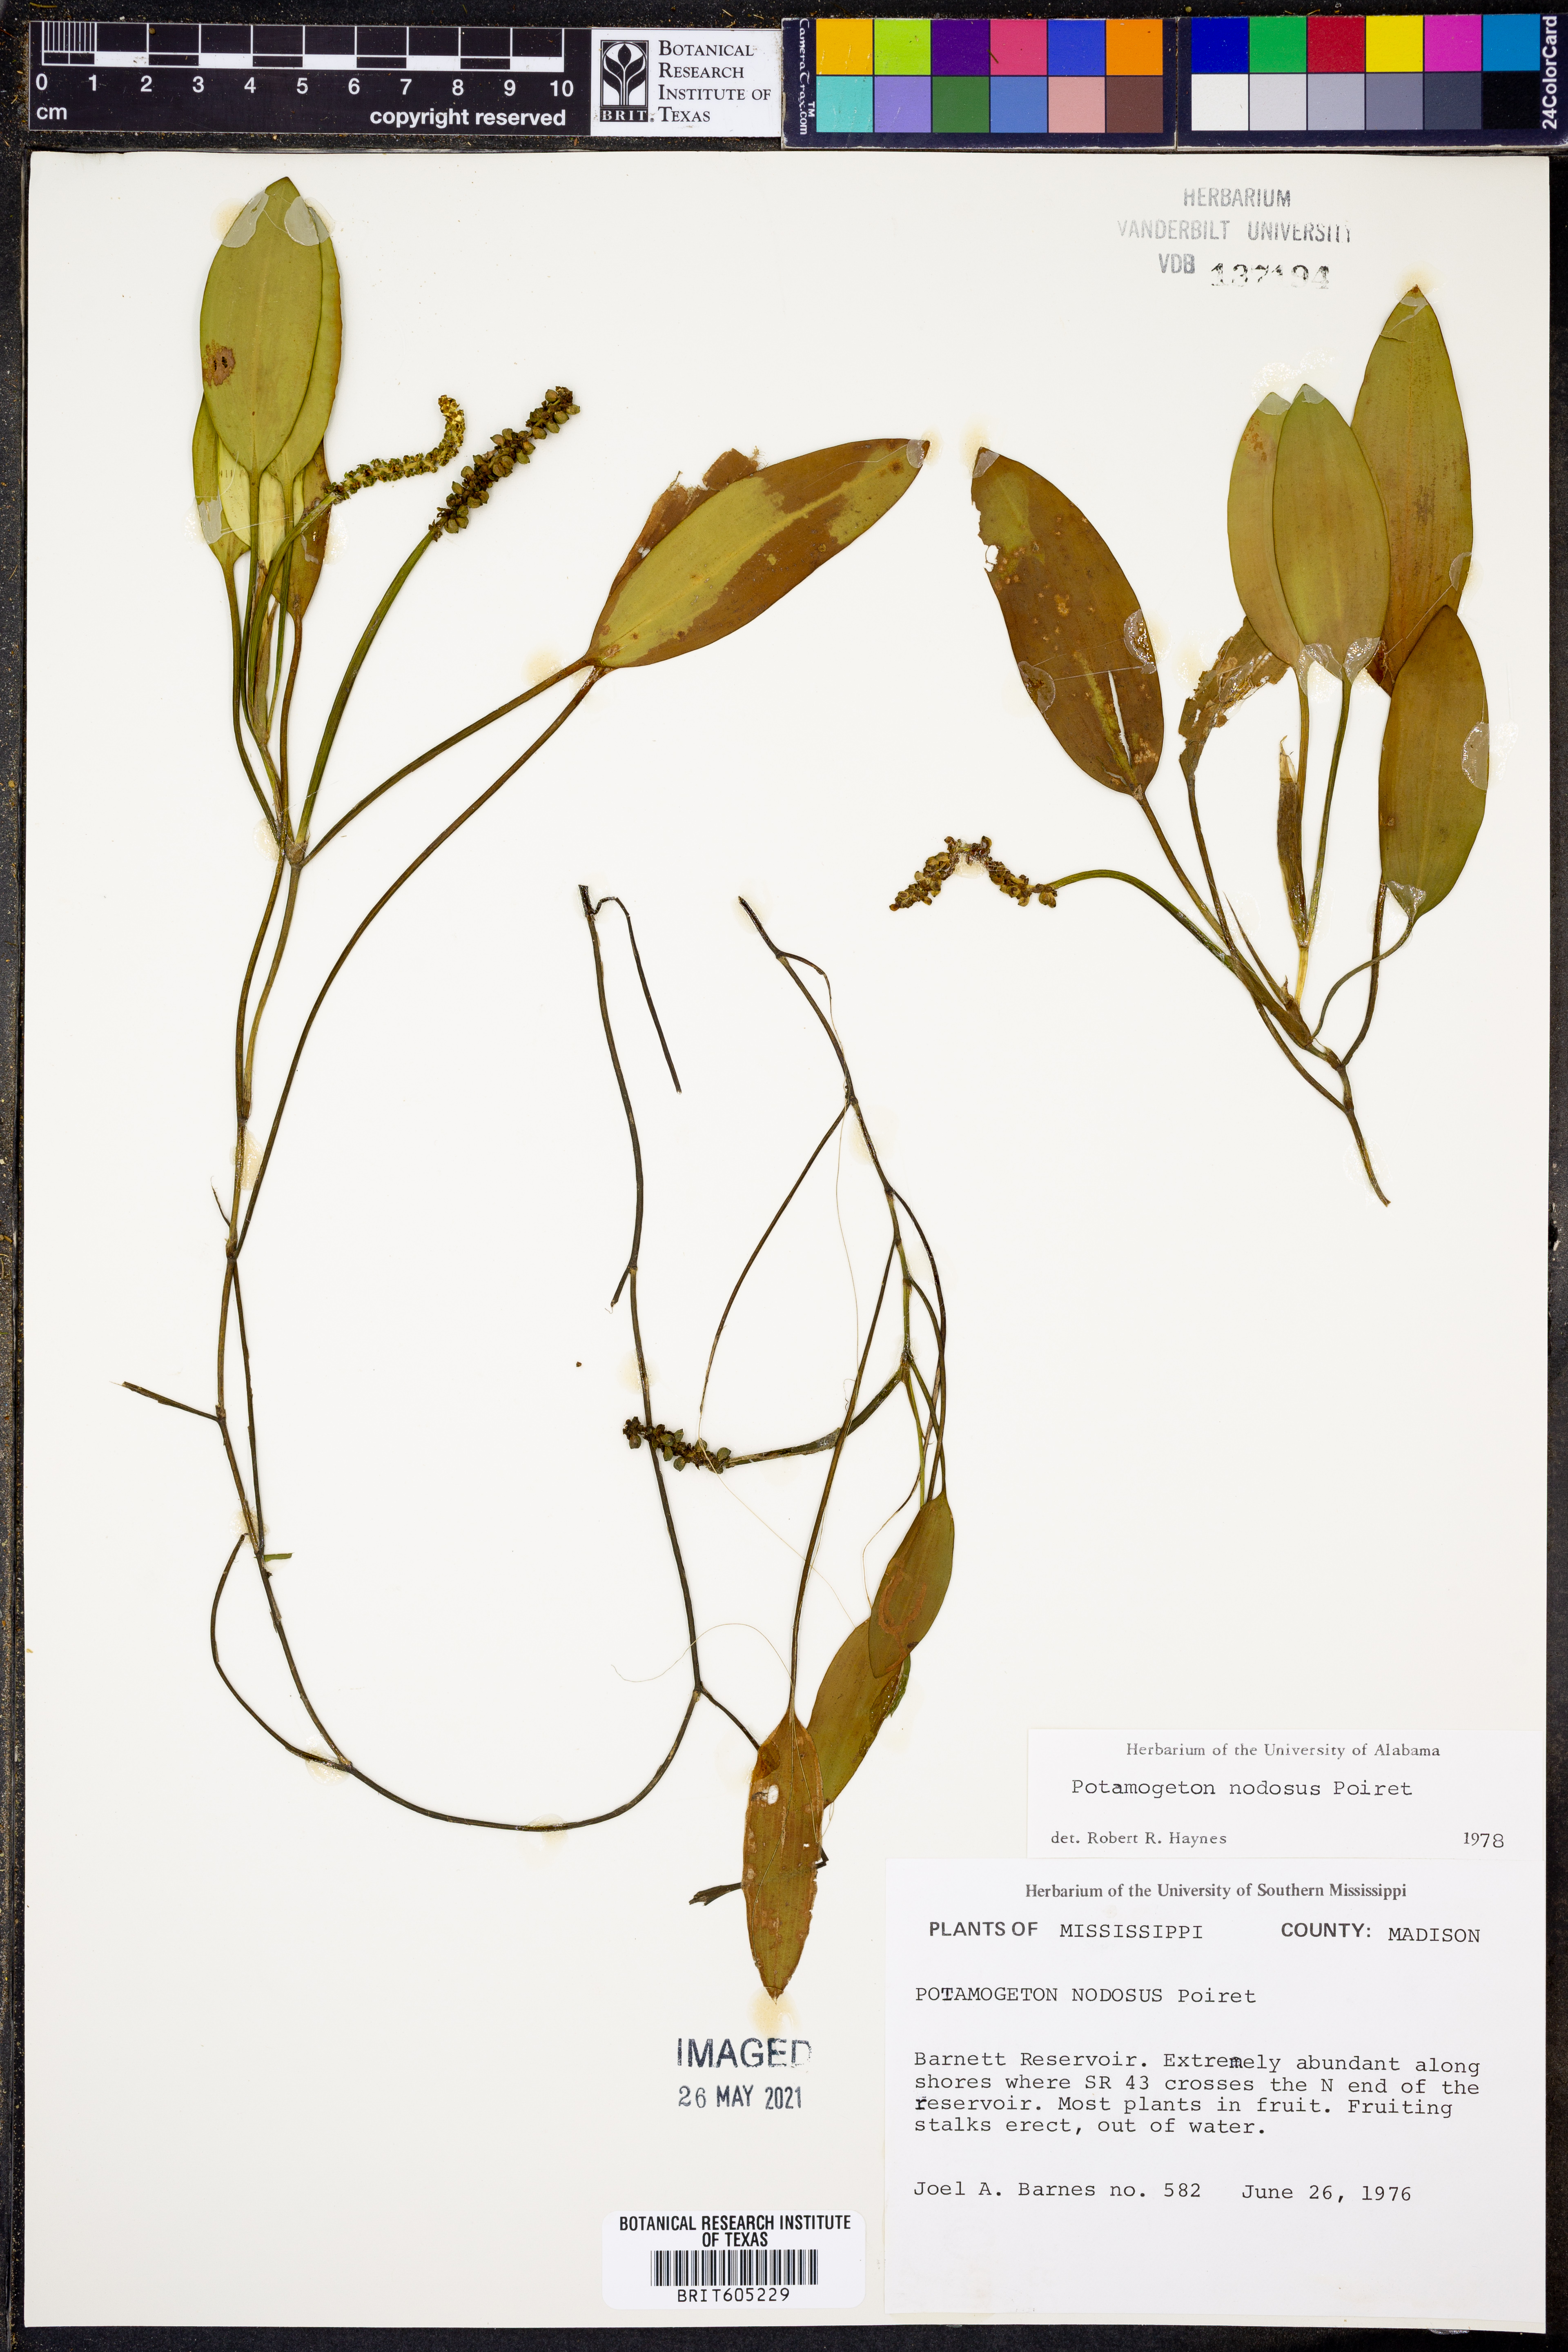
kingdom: Plantae
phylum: Tracheophyta
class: Liliopsida
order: Alismatales
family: Potamogetonaceae
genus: Potamogeton
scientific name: Potamogeton nodosus
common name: Loddon pondweed
